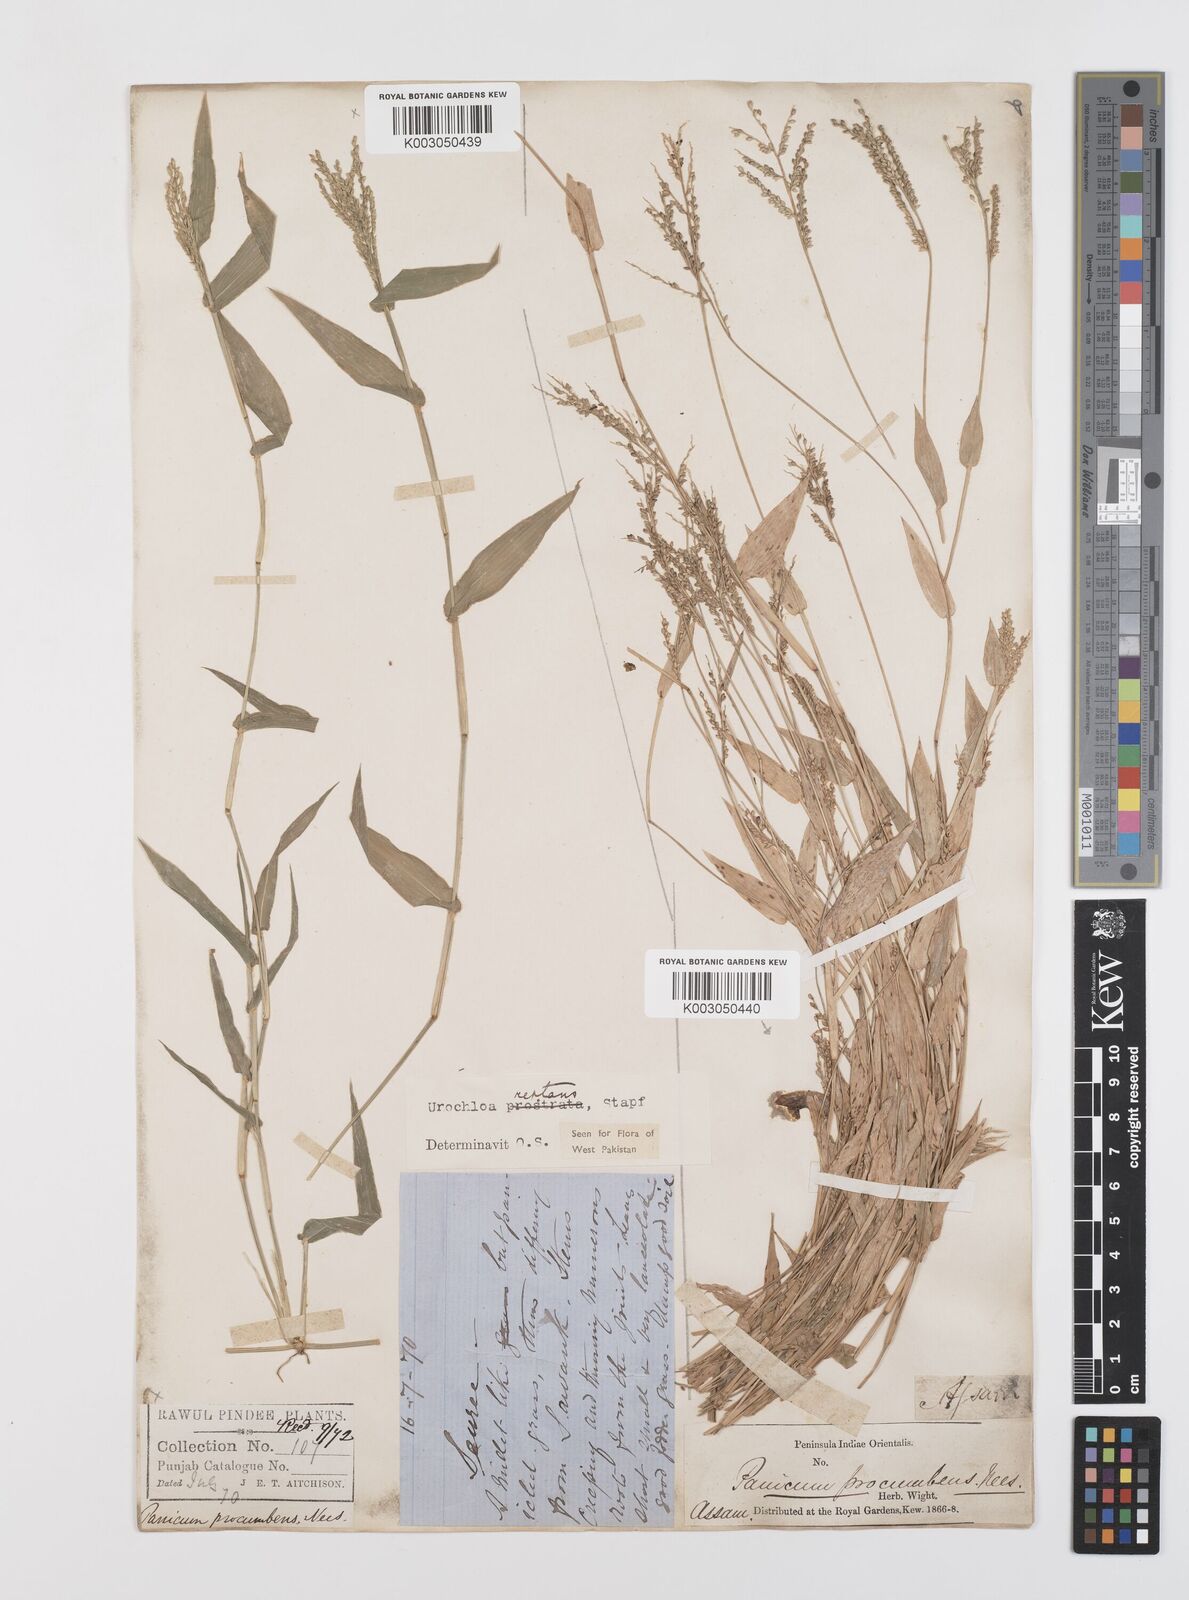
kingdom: Plantae
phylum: Tracheophyta
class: Liliopsida
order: Poales
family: Poaceae
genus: Urochloa
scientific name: Urochloa reptans
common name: Sprawling signalgrass
